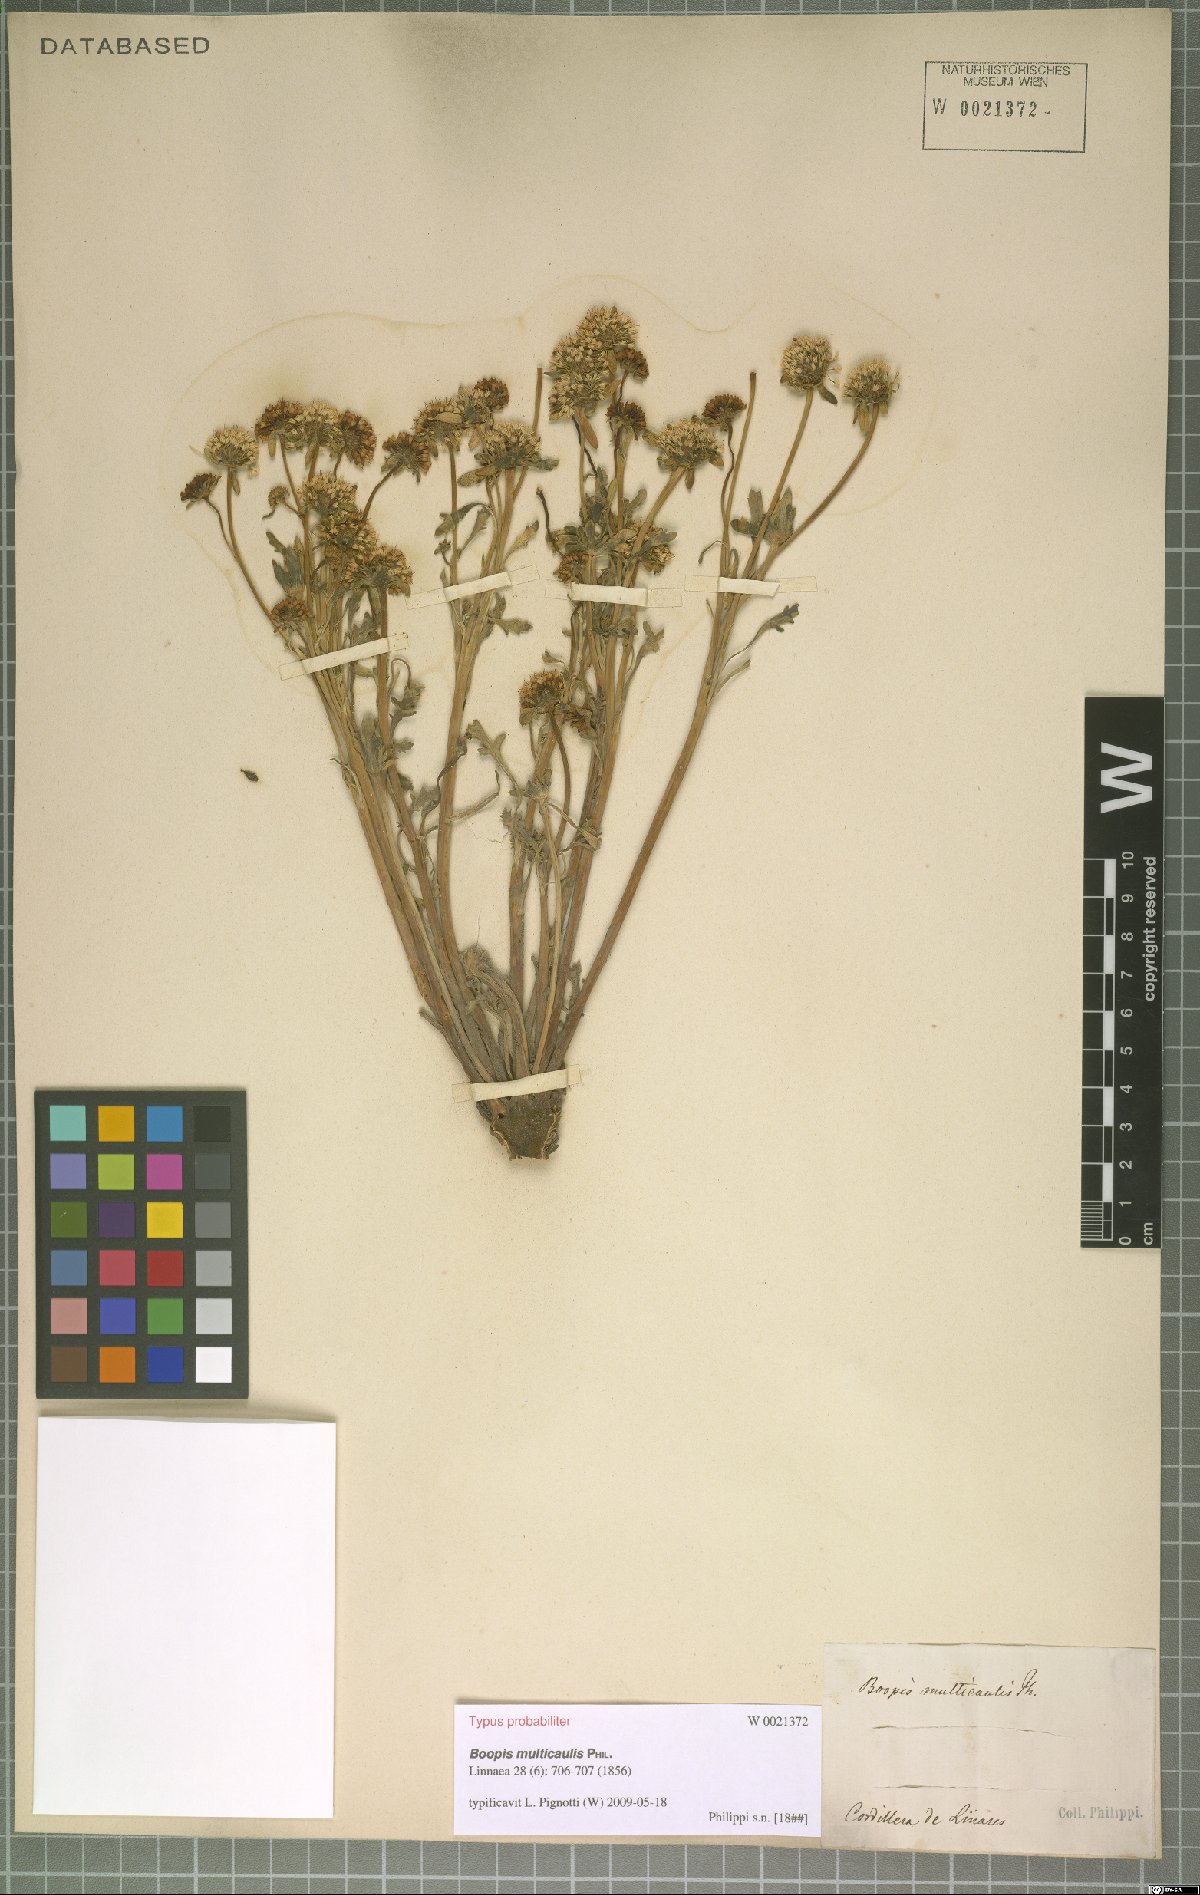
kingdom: Plantae
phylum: Tracheophyta
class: Magnoliopsida
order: Asterales
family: Calyceraceae
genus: Gamocarpha
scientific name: Gamocarpha multicaulis
